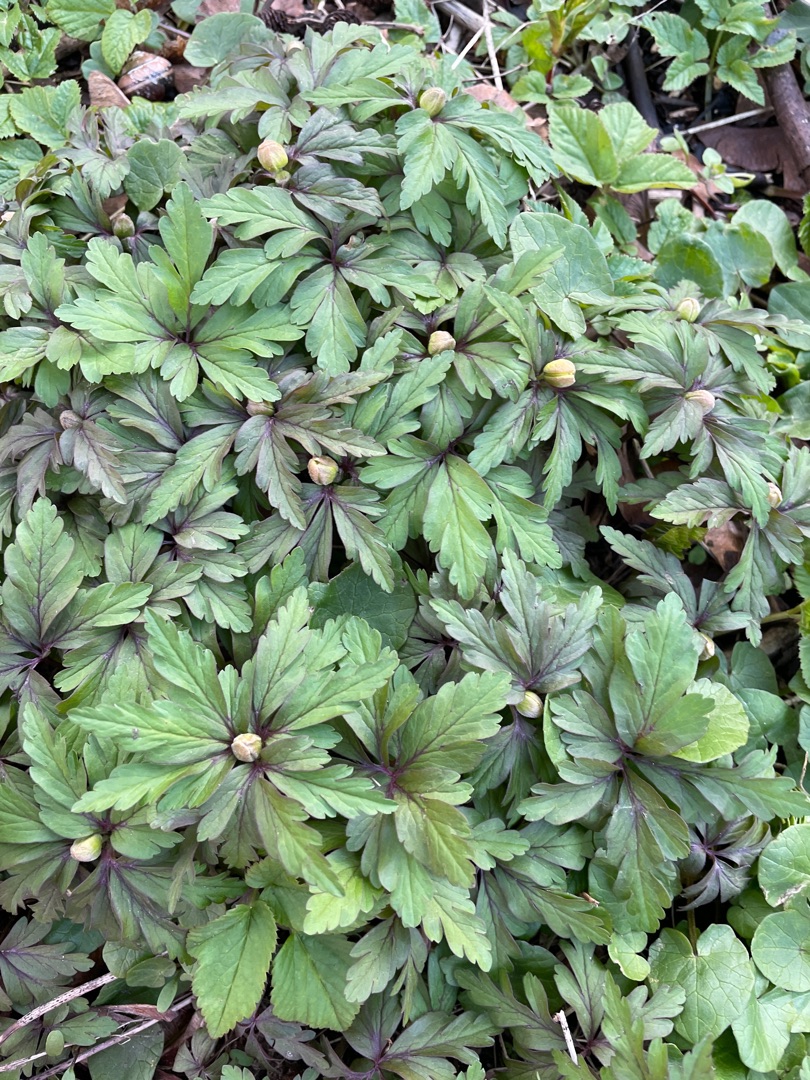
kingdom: Plantae
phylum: Tracheophyta
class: Magnoliopsida
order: Ranunculales
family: Ranunculaceae
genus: Anemone
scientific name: Anemone ranunculoides
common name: Gul anemone
